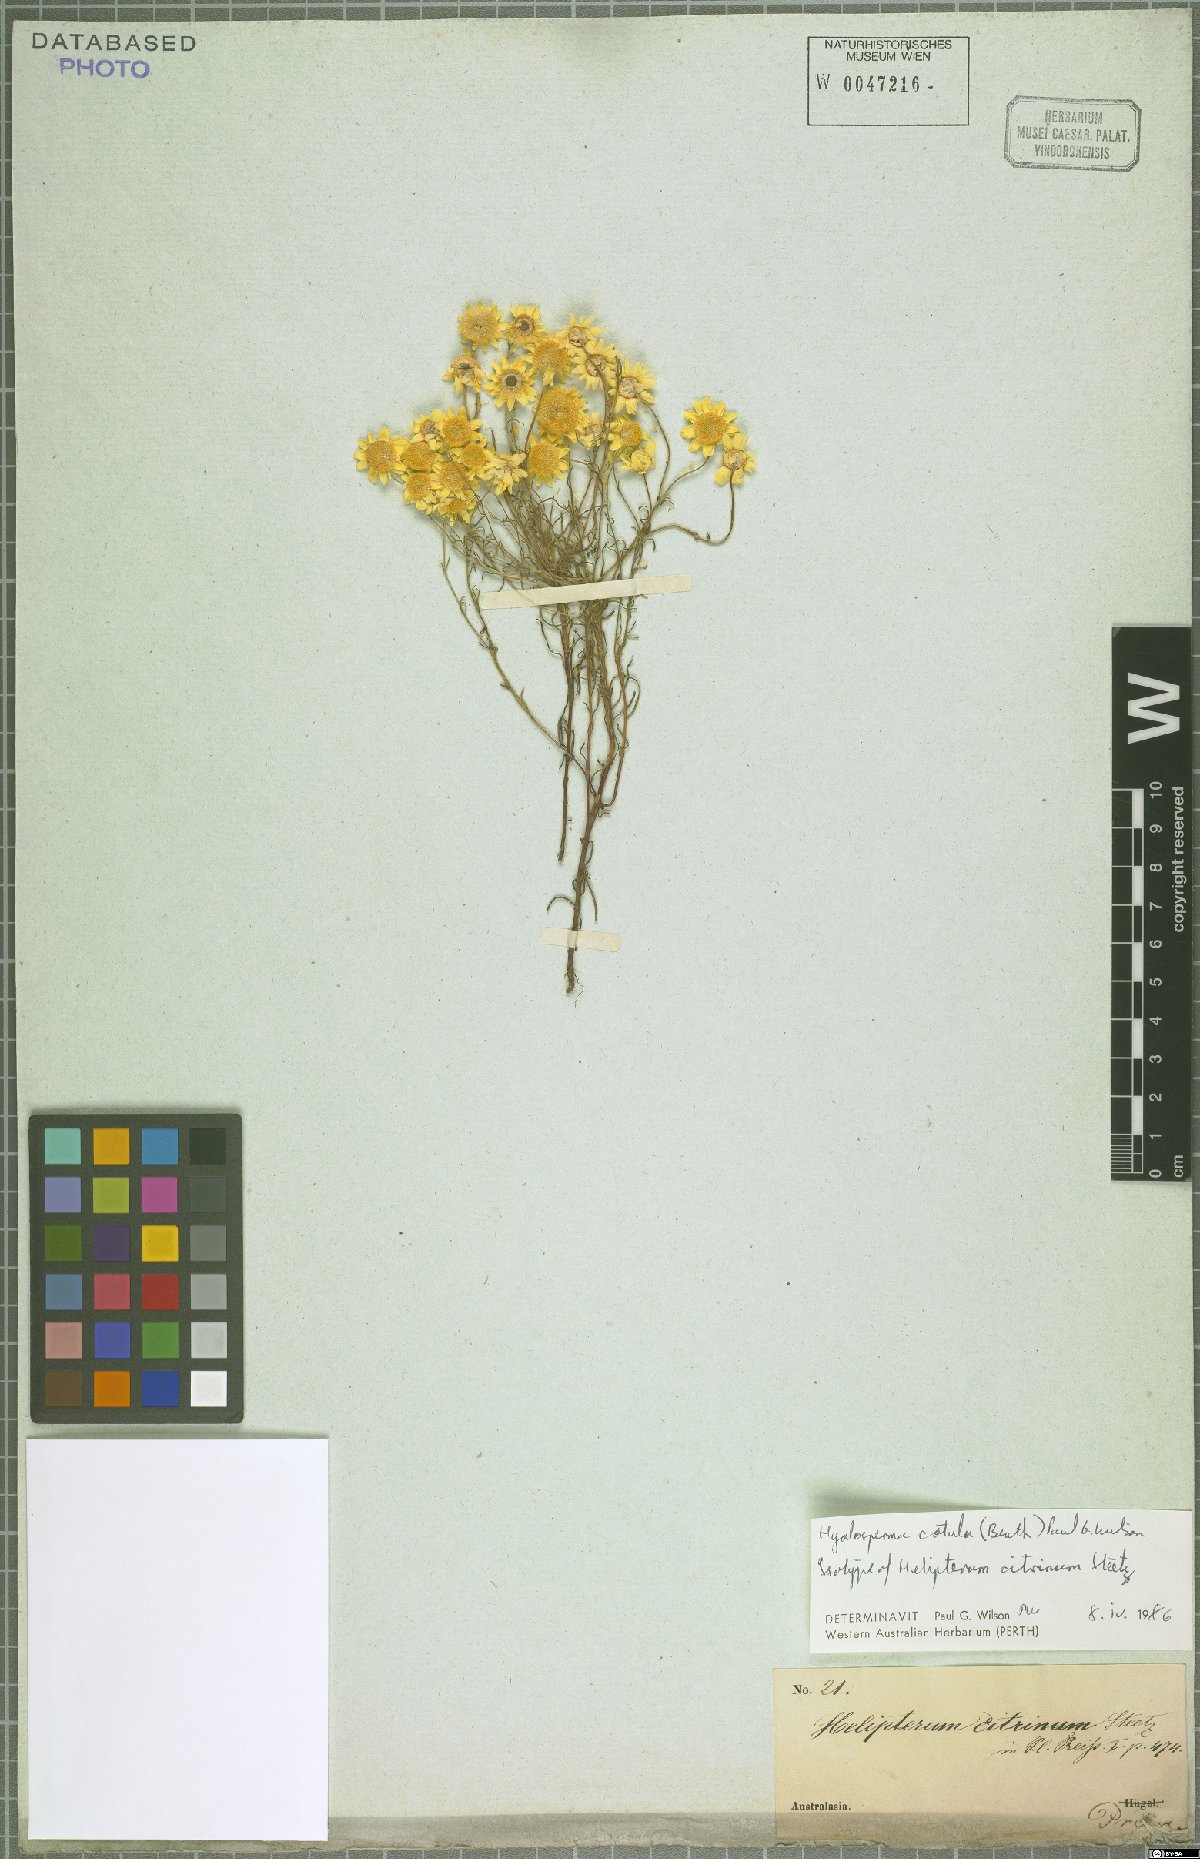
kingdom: Plantae
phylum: Tracheophyta
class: Magnoliopsida
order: Asterales
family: Asteraceae
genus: Hyalosperma
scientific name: Hyalosperma cotula
